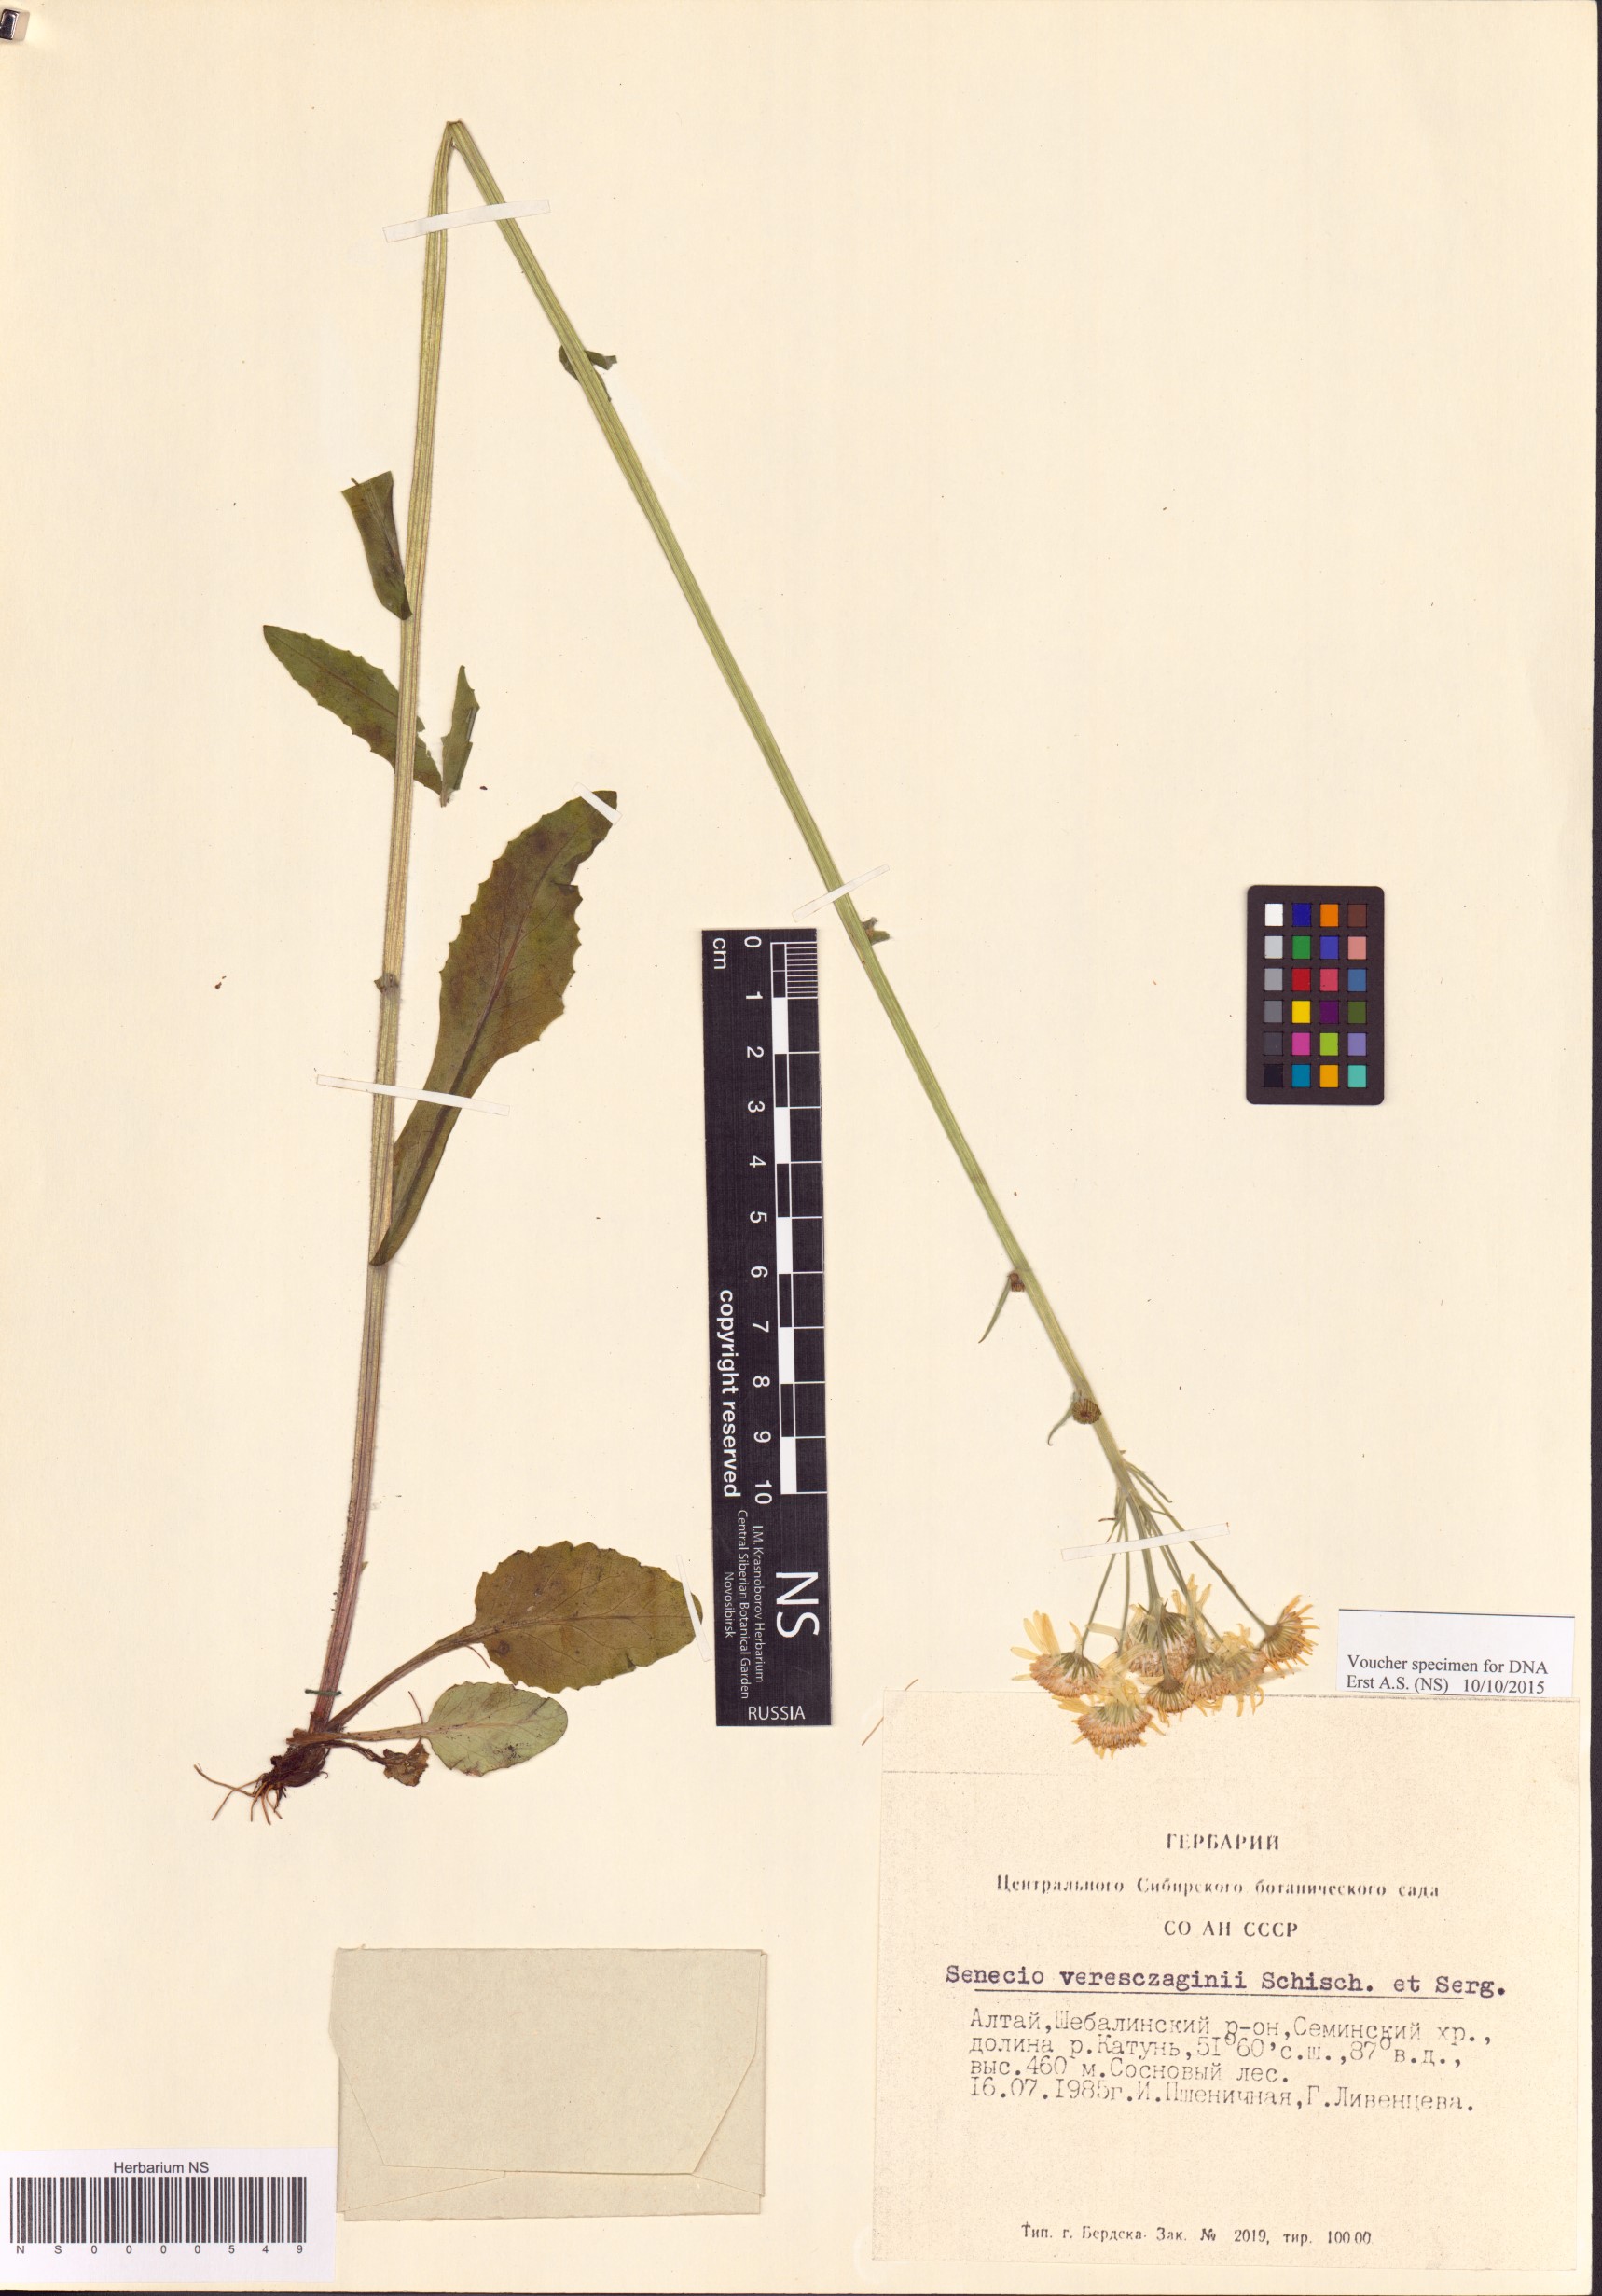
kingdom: Plantae
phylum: Tracheophyta
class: Magnoliopsida
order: Asterales
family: Asteraceae
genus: Tephroseris
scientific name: Tephroseris vereszczaginii
